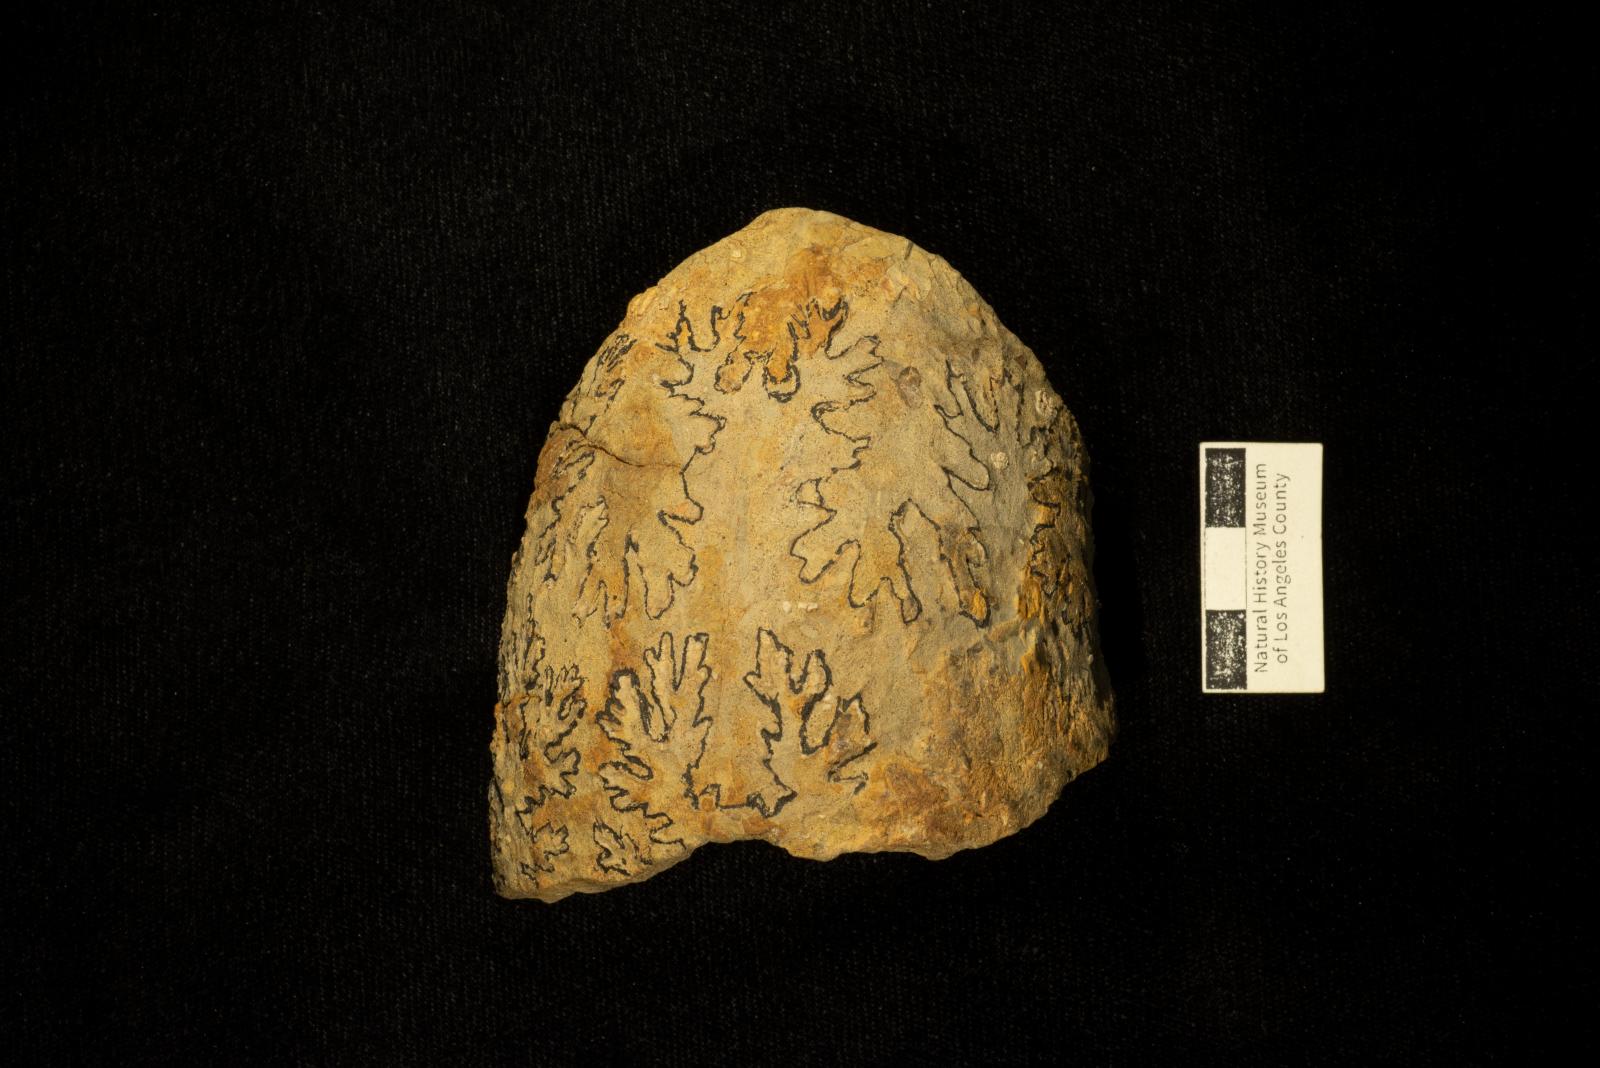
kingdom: Animalia
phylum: Mollusca
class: Cephalopoda
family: Pachydiscidae
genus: Menuites
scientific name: Menuites
